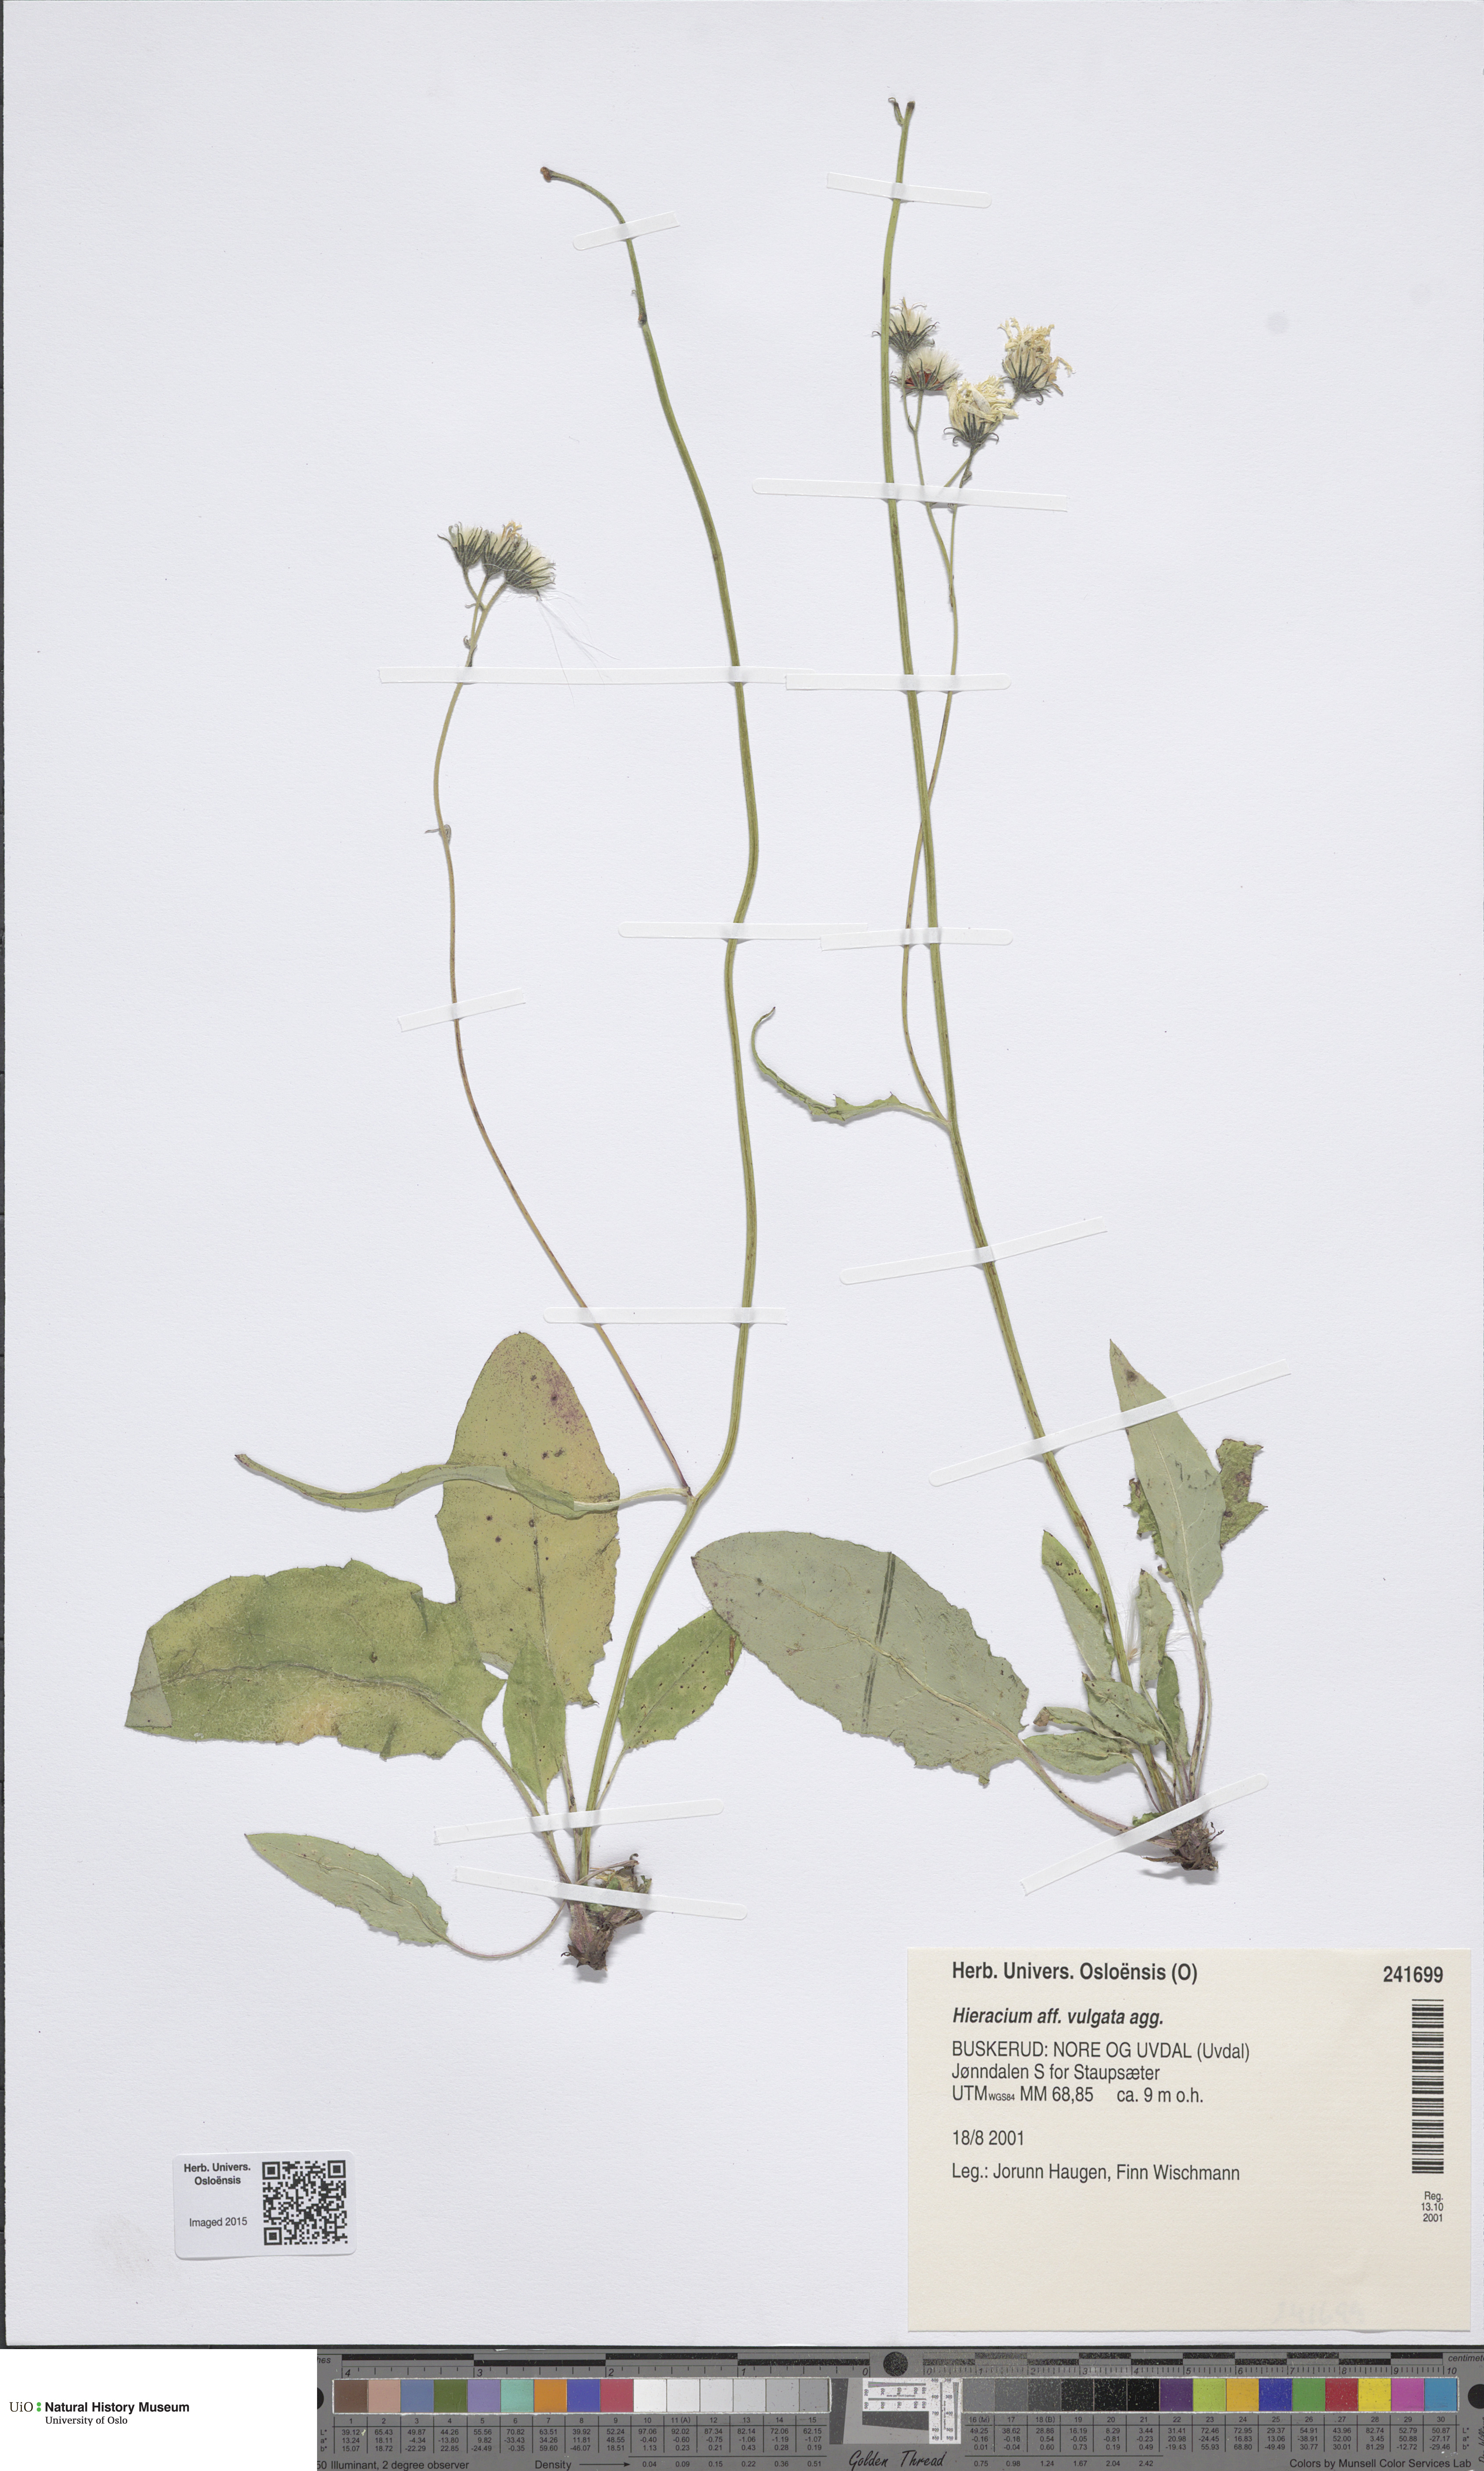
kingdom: Plantae
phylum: Tracheophyta
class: Magnoliopsida
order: Asterales
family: Asteraceae
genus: Hieracium
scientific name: Hieracium vulgatum
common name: Common hawkweed
